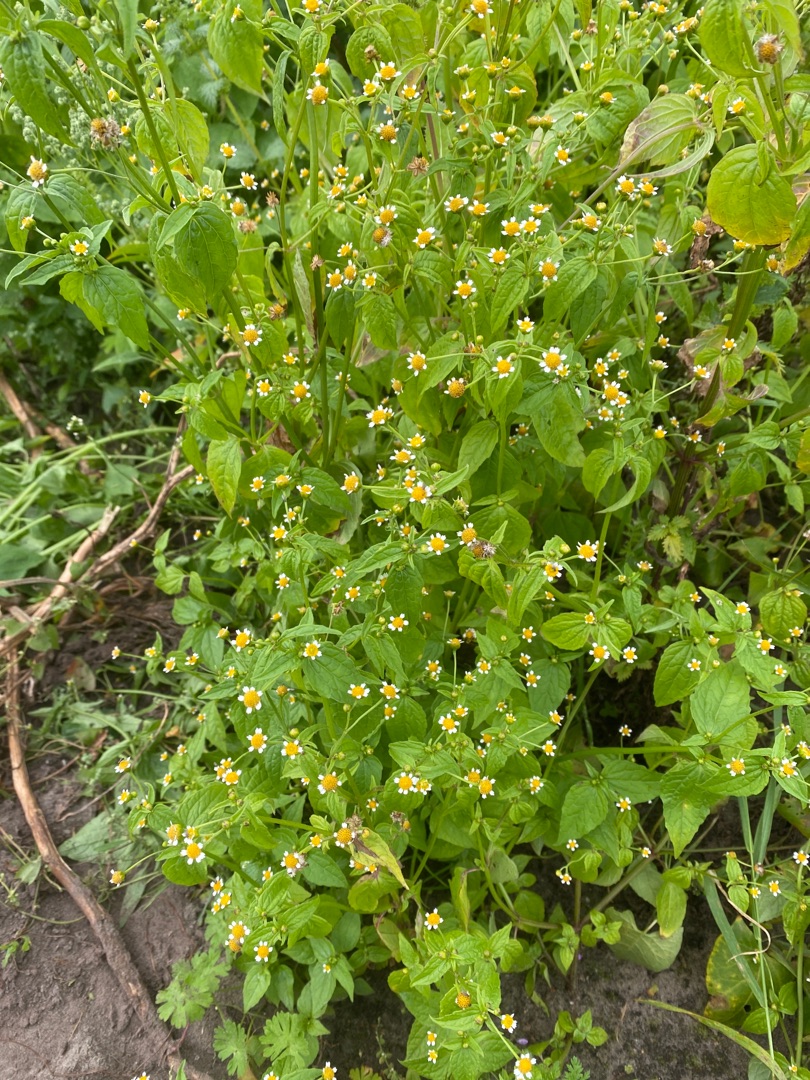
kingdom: Plantae
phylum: Tracheophyta
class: Magnoliopsida
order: Asterales
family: Asteraceae
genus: Galinsoga
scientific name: Galinsoga parviflora
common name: Håret kortstråle
